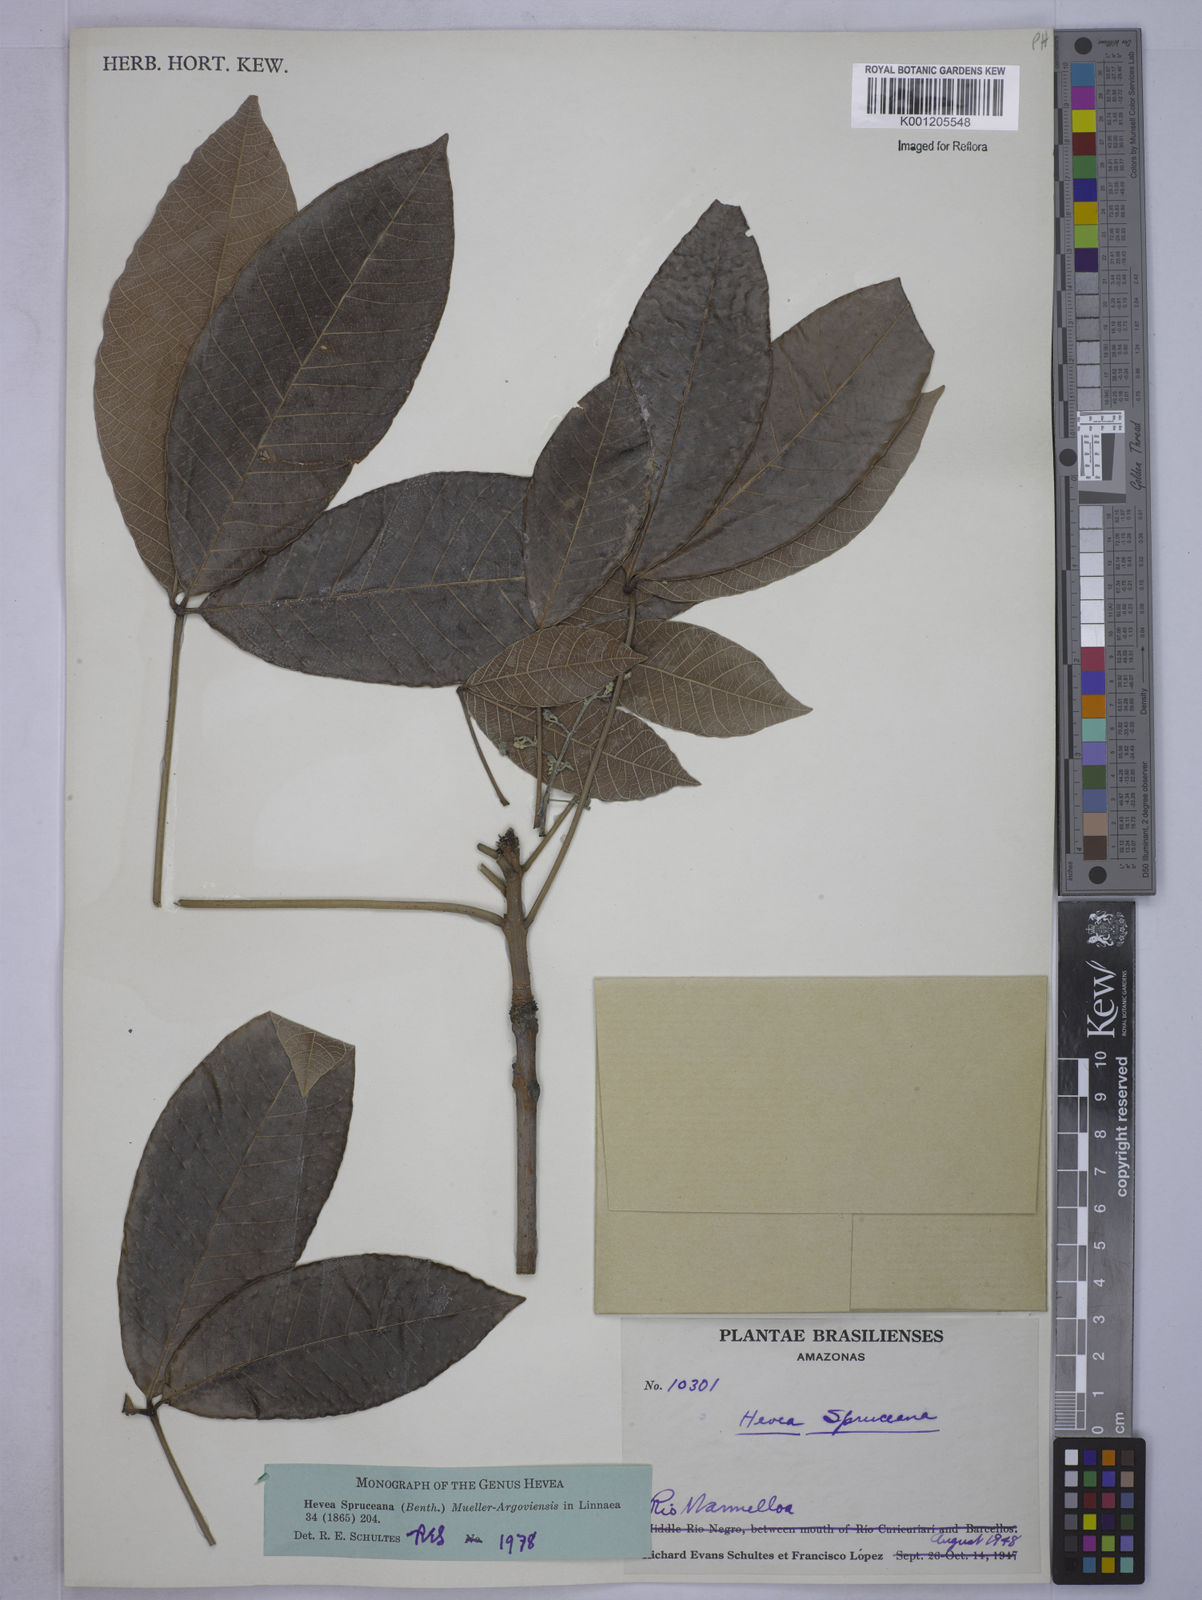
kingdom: Plantae
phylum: Tracheophyta
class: Magnoliopsida
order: Malpighiales
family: Euphorbiaceae
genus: Hevea
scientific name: Hevea
